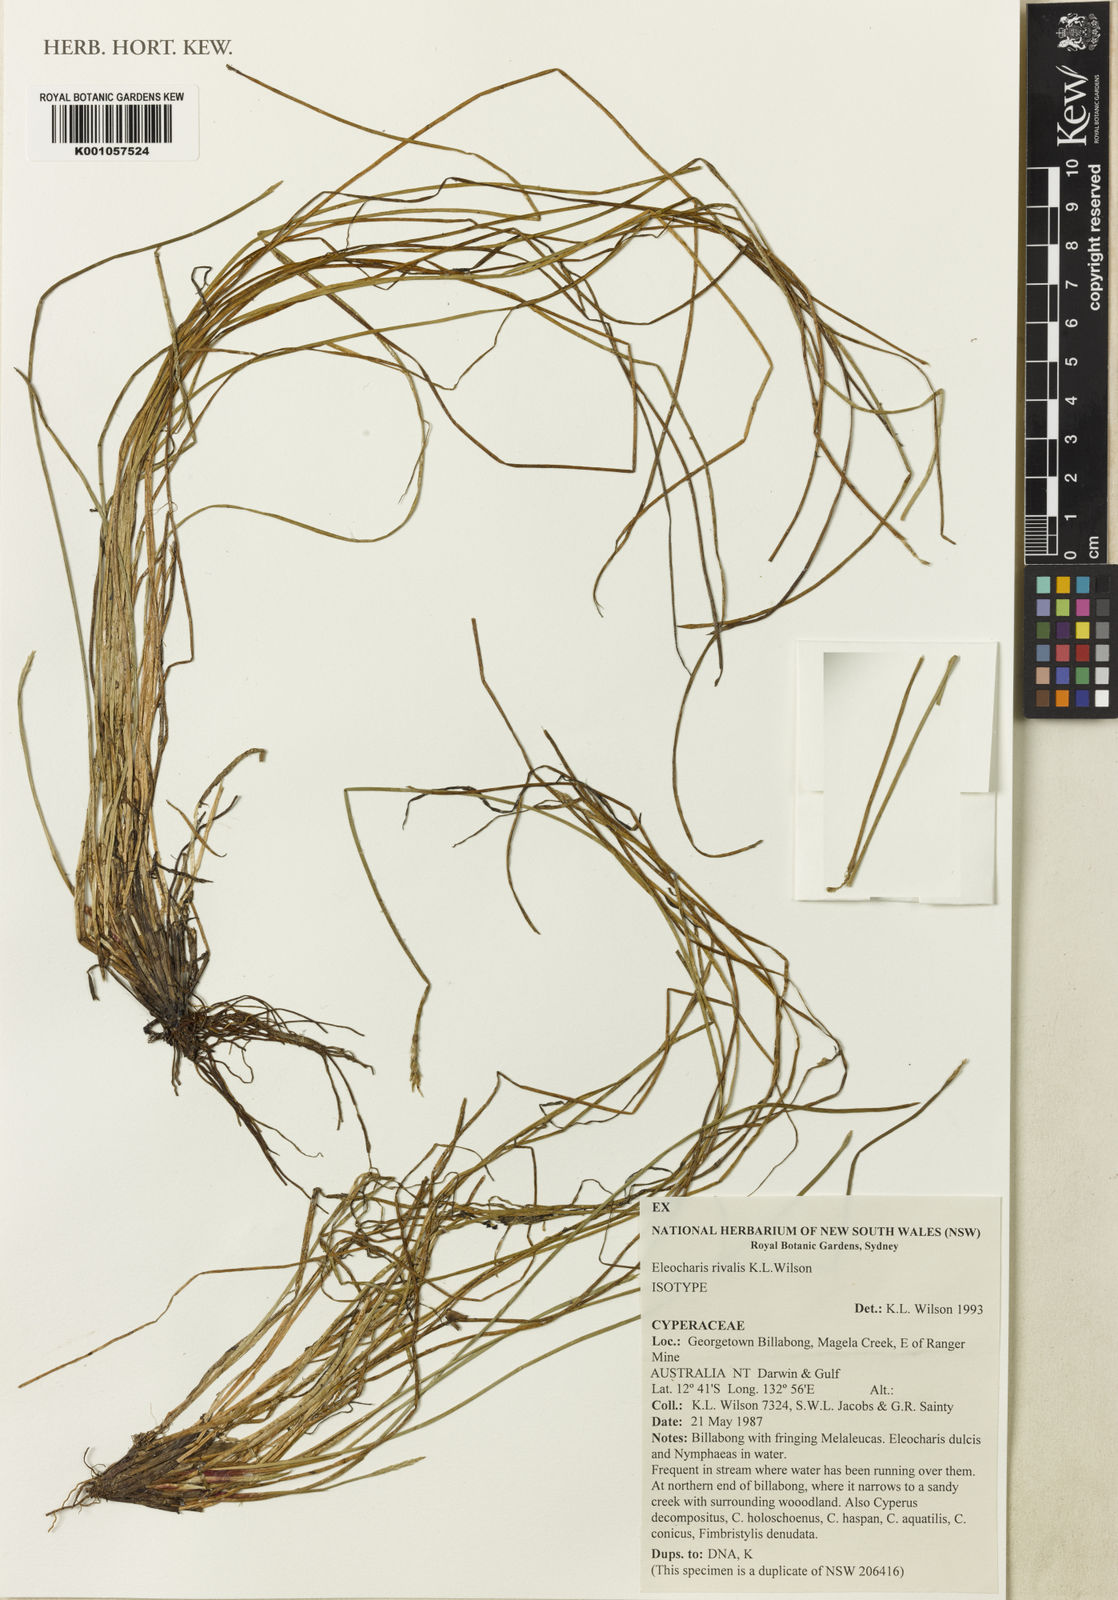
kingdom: Plantae
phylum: Tracheophyta
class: Liliopsida
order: Poales
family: Cyperaceae
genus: Eleocharis
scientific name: Eleocharis rivalis
